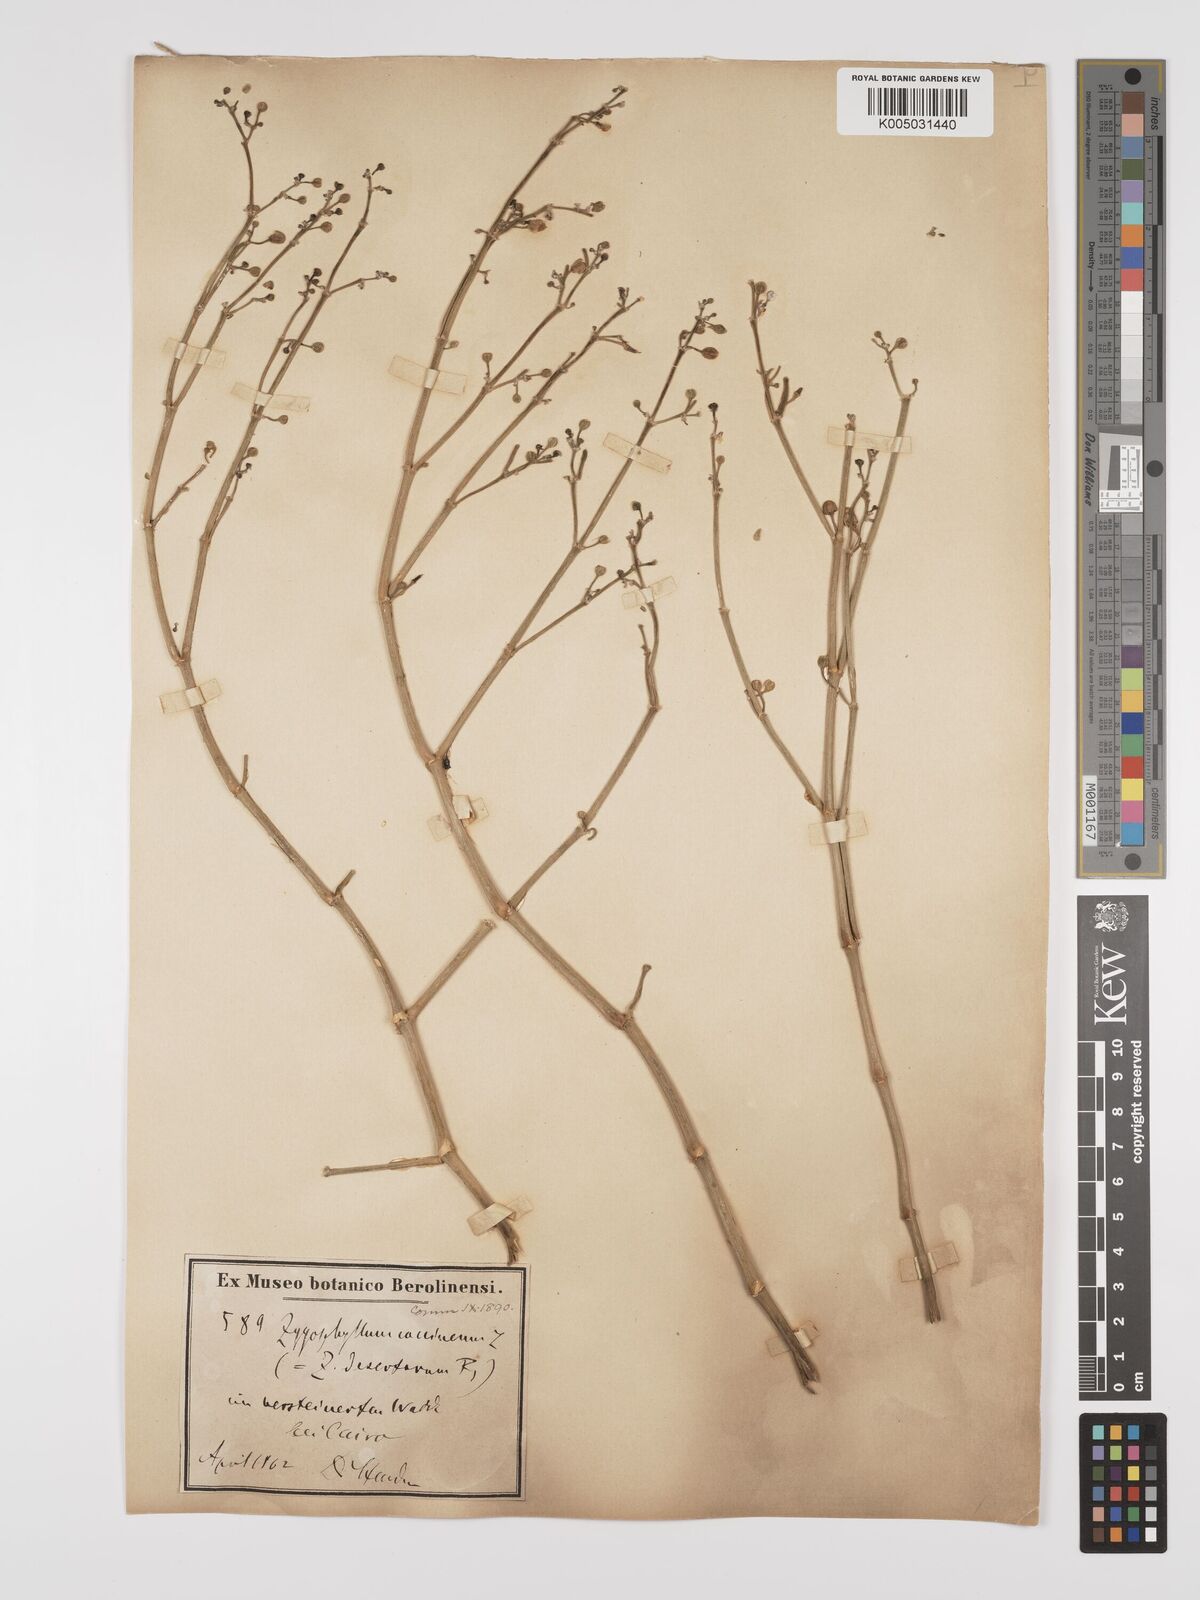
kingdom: Plantae
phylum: Tracheophyta
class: Magnoliopsida
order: Zygophyllales
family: Zygophyllaceae
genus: Zygophyllum
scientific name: Zygophyllum
